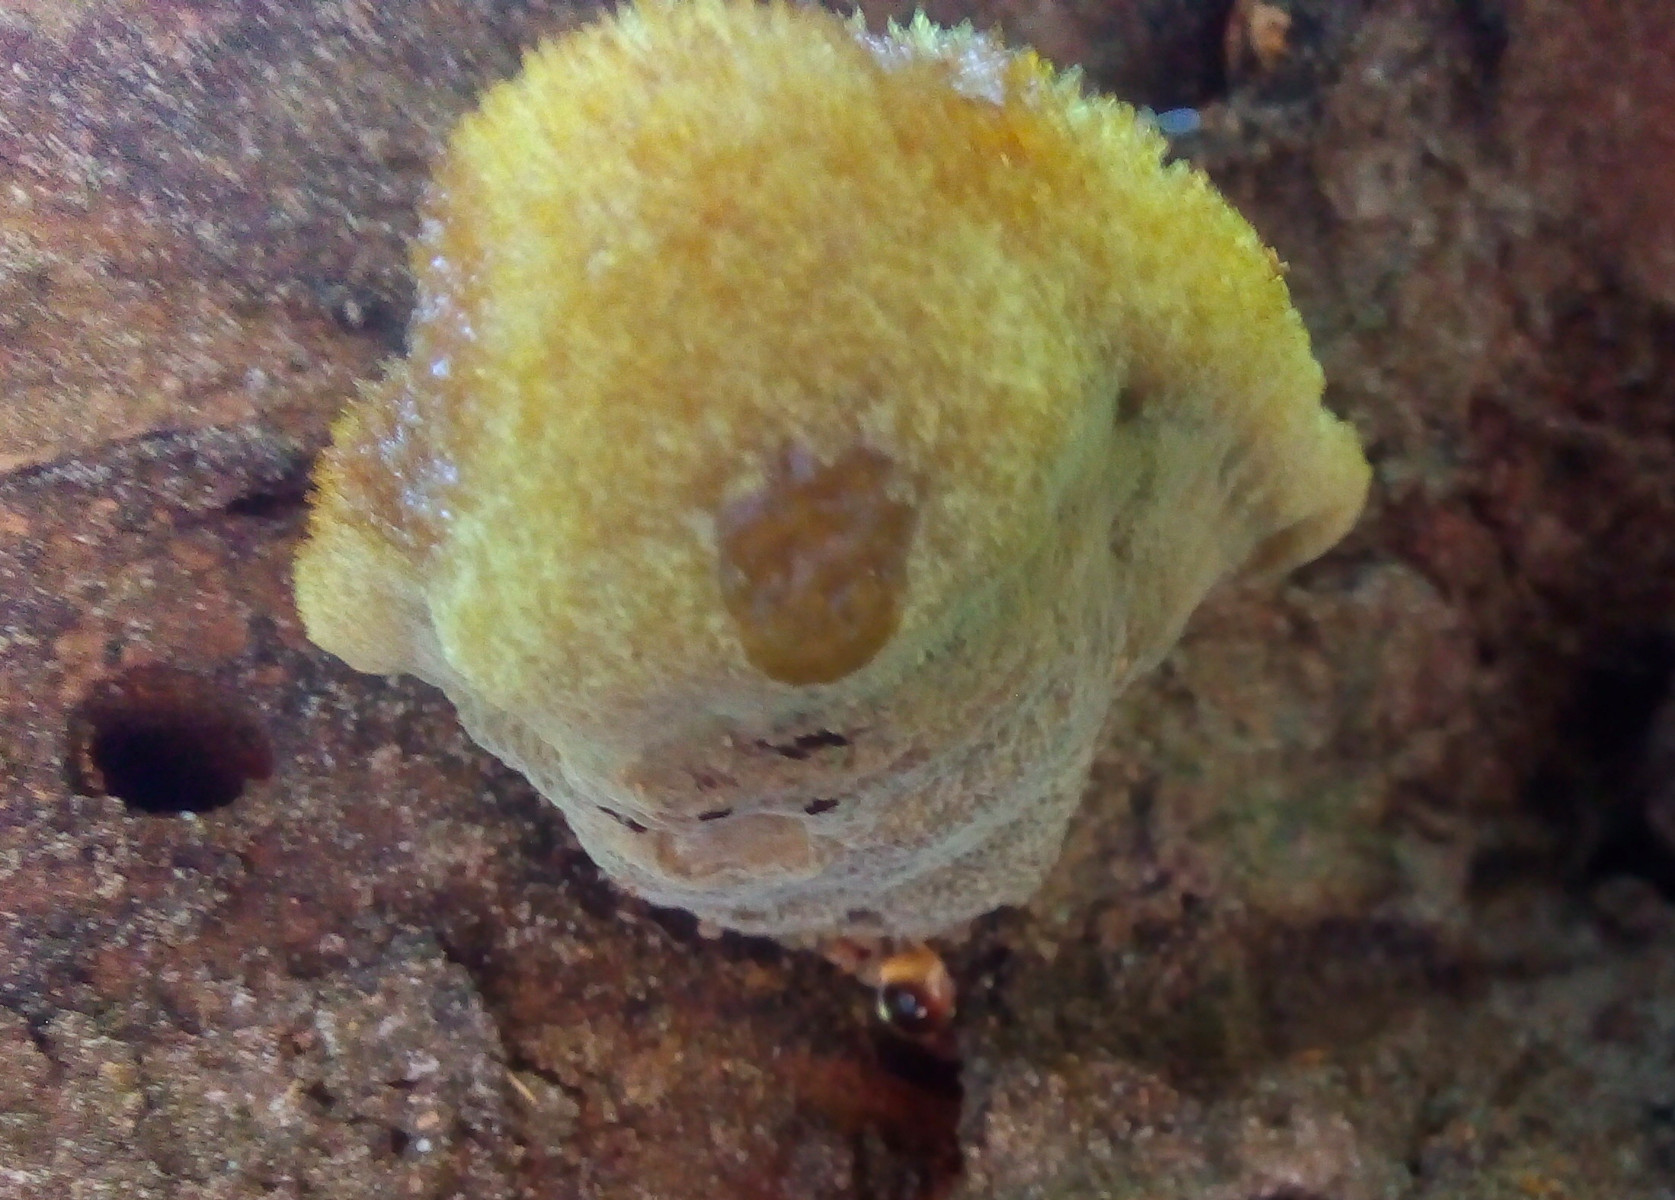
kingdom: Fungi
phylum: Basidiomycota
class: Agaricomycetes
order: Polyporales
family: Laetiporaceae
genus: Phaeolus
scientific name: Phaeolus schweinitzii
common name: brunporesvamp
